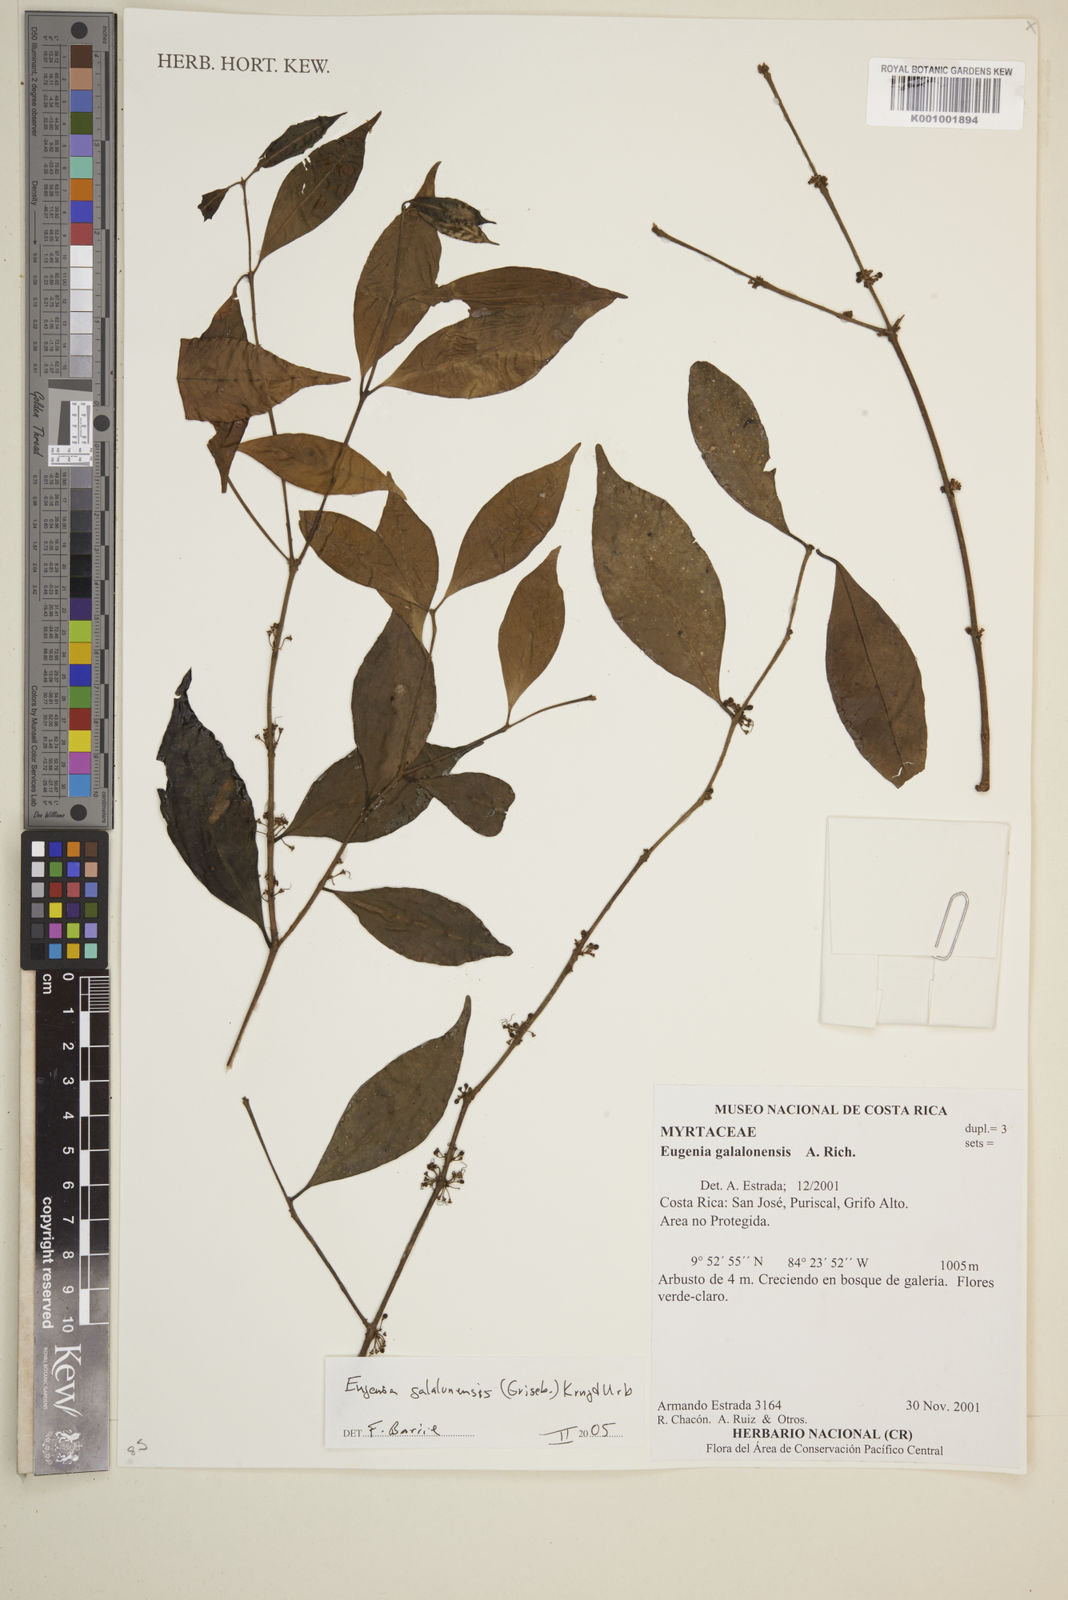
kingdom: Plantae
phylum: Tracheophyta
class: Magnoliopsida
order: Myrtales
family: Myrtaceae
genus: Eugenia
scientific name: Eugenia galalonensis
